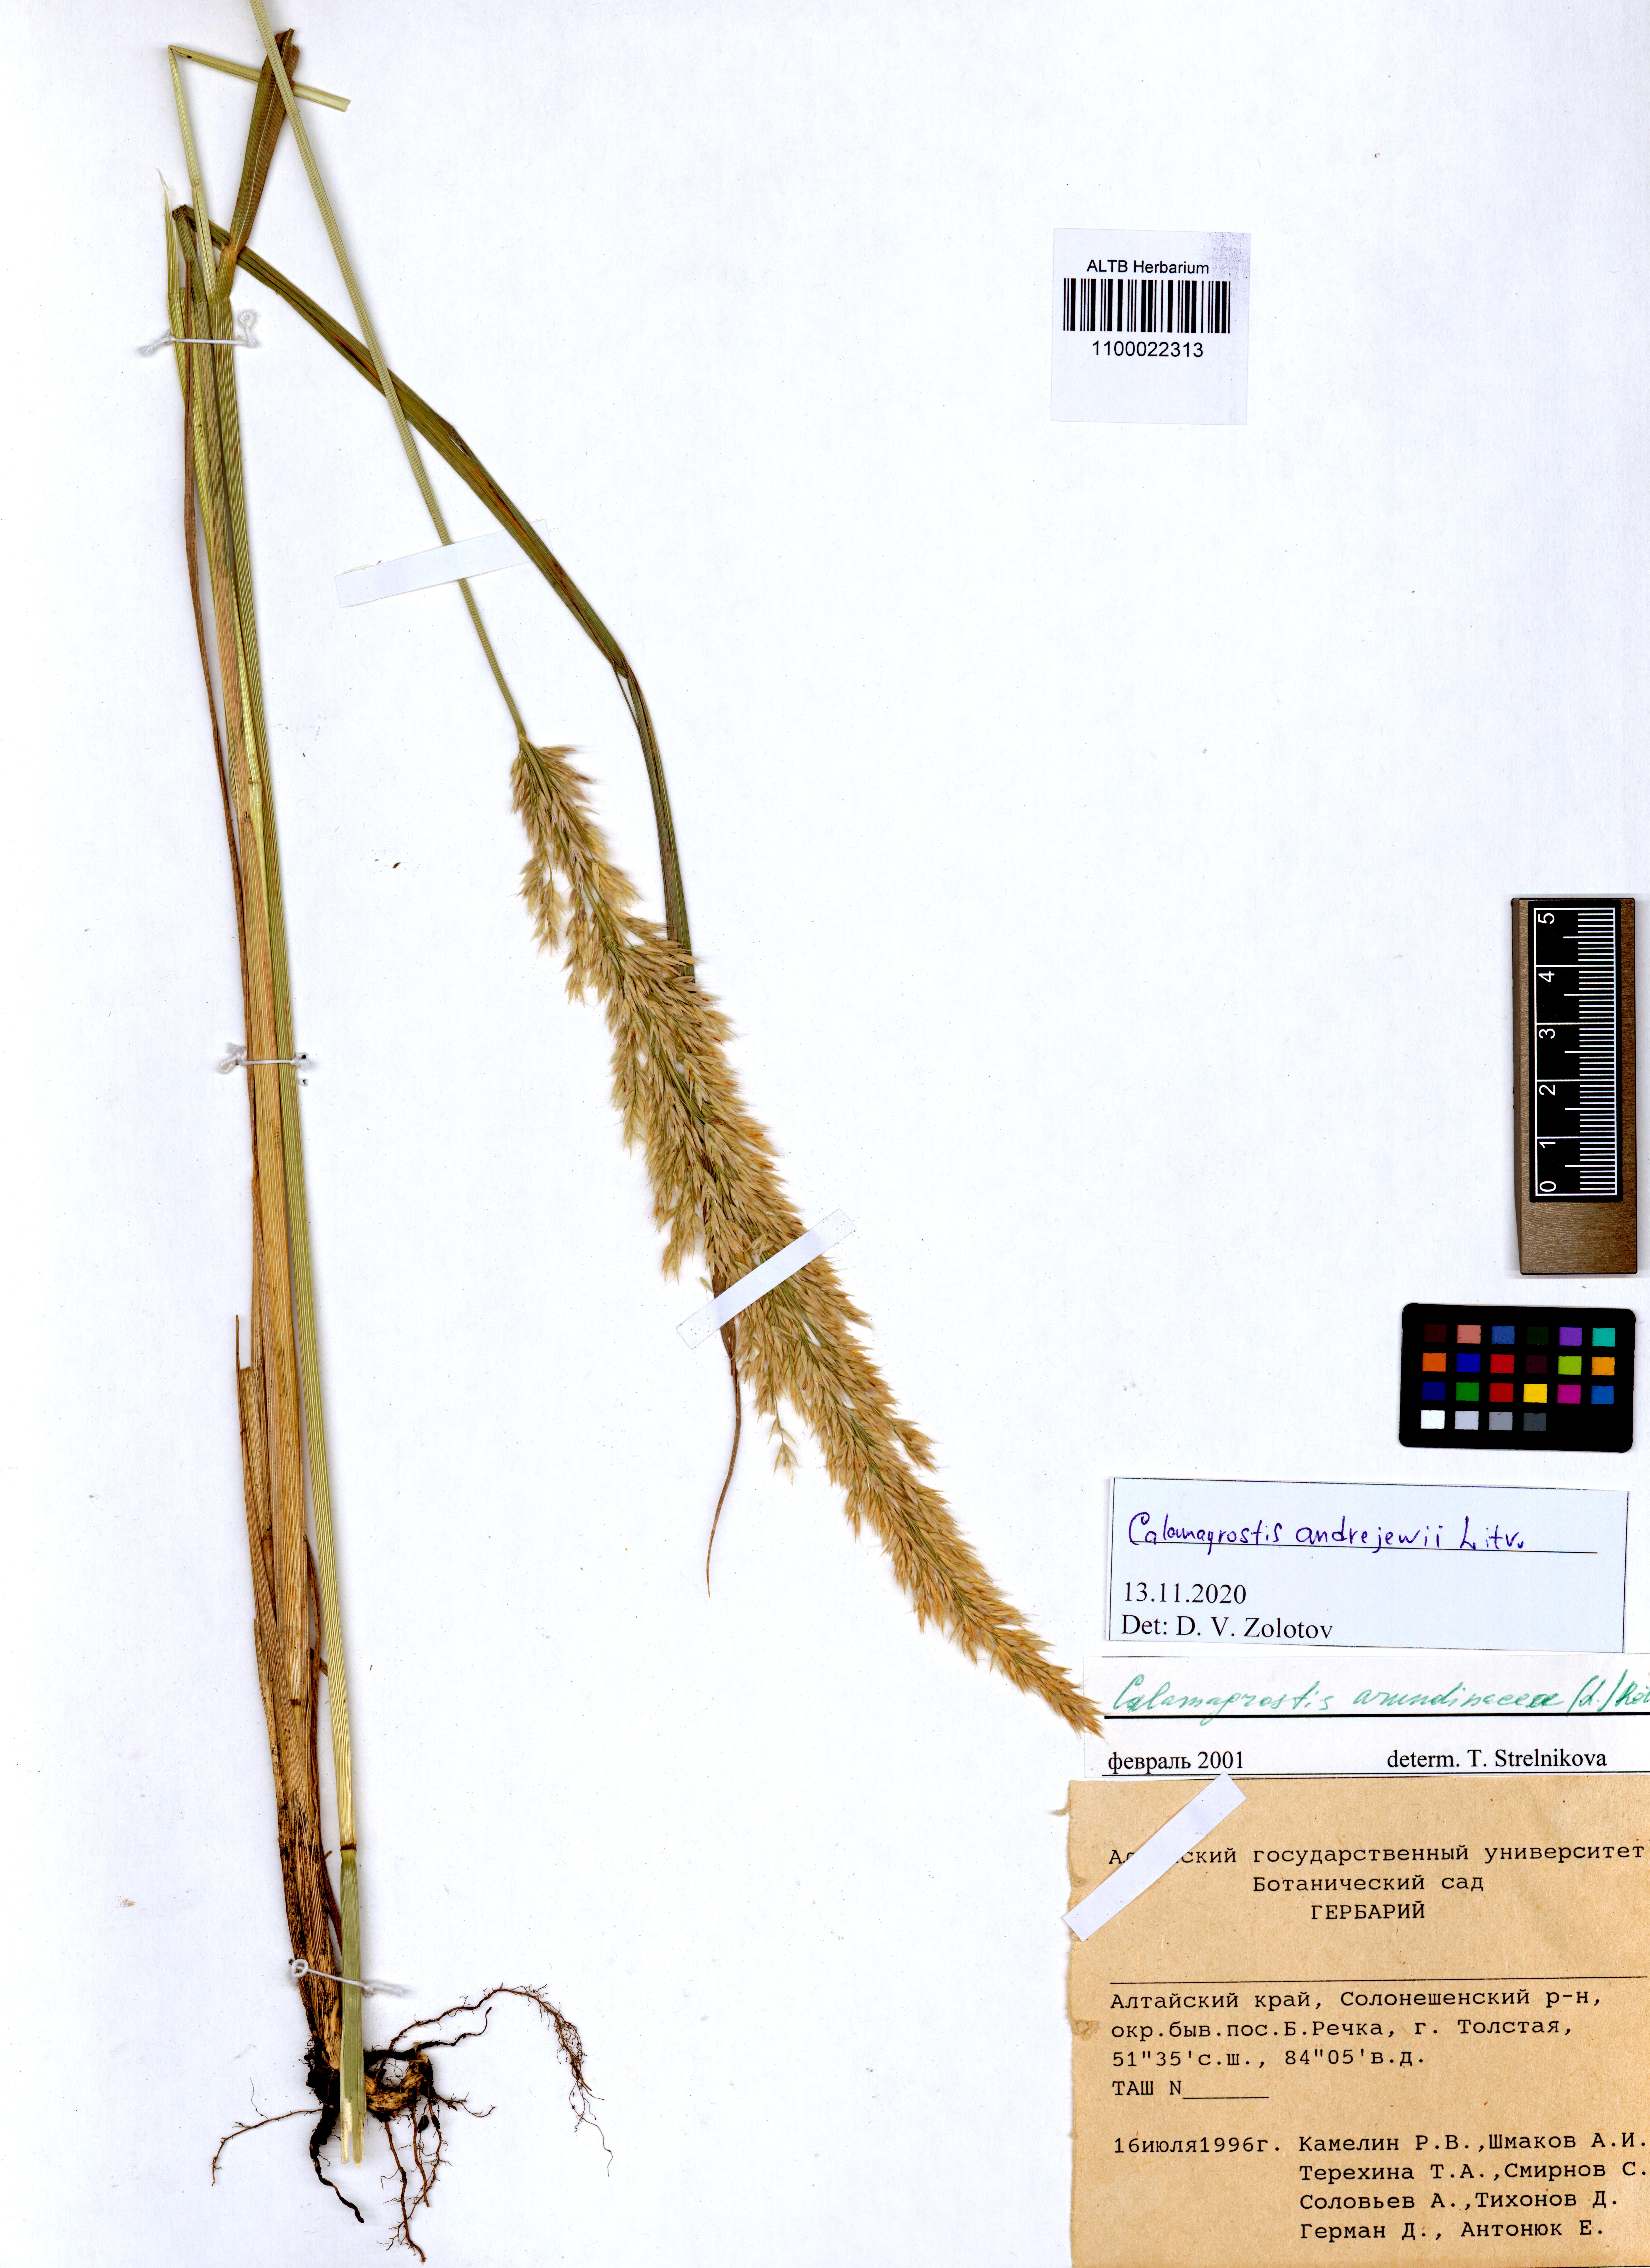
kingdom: Plantae
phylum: Tracheophyta
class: Liliopsida
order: Poales
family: Poaceae
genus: Calamagrostis
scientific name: Calamagrostis andrejewii
